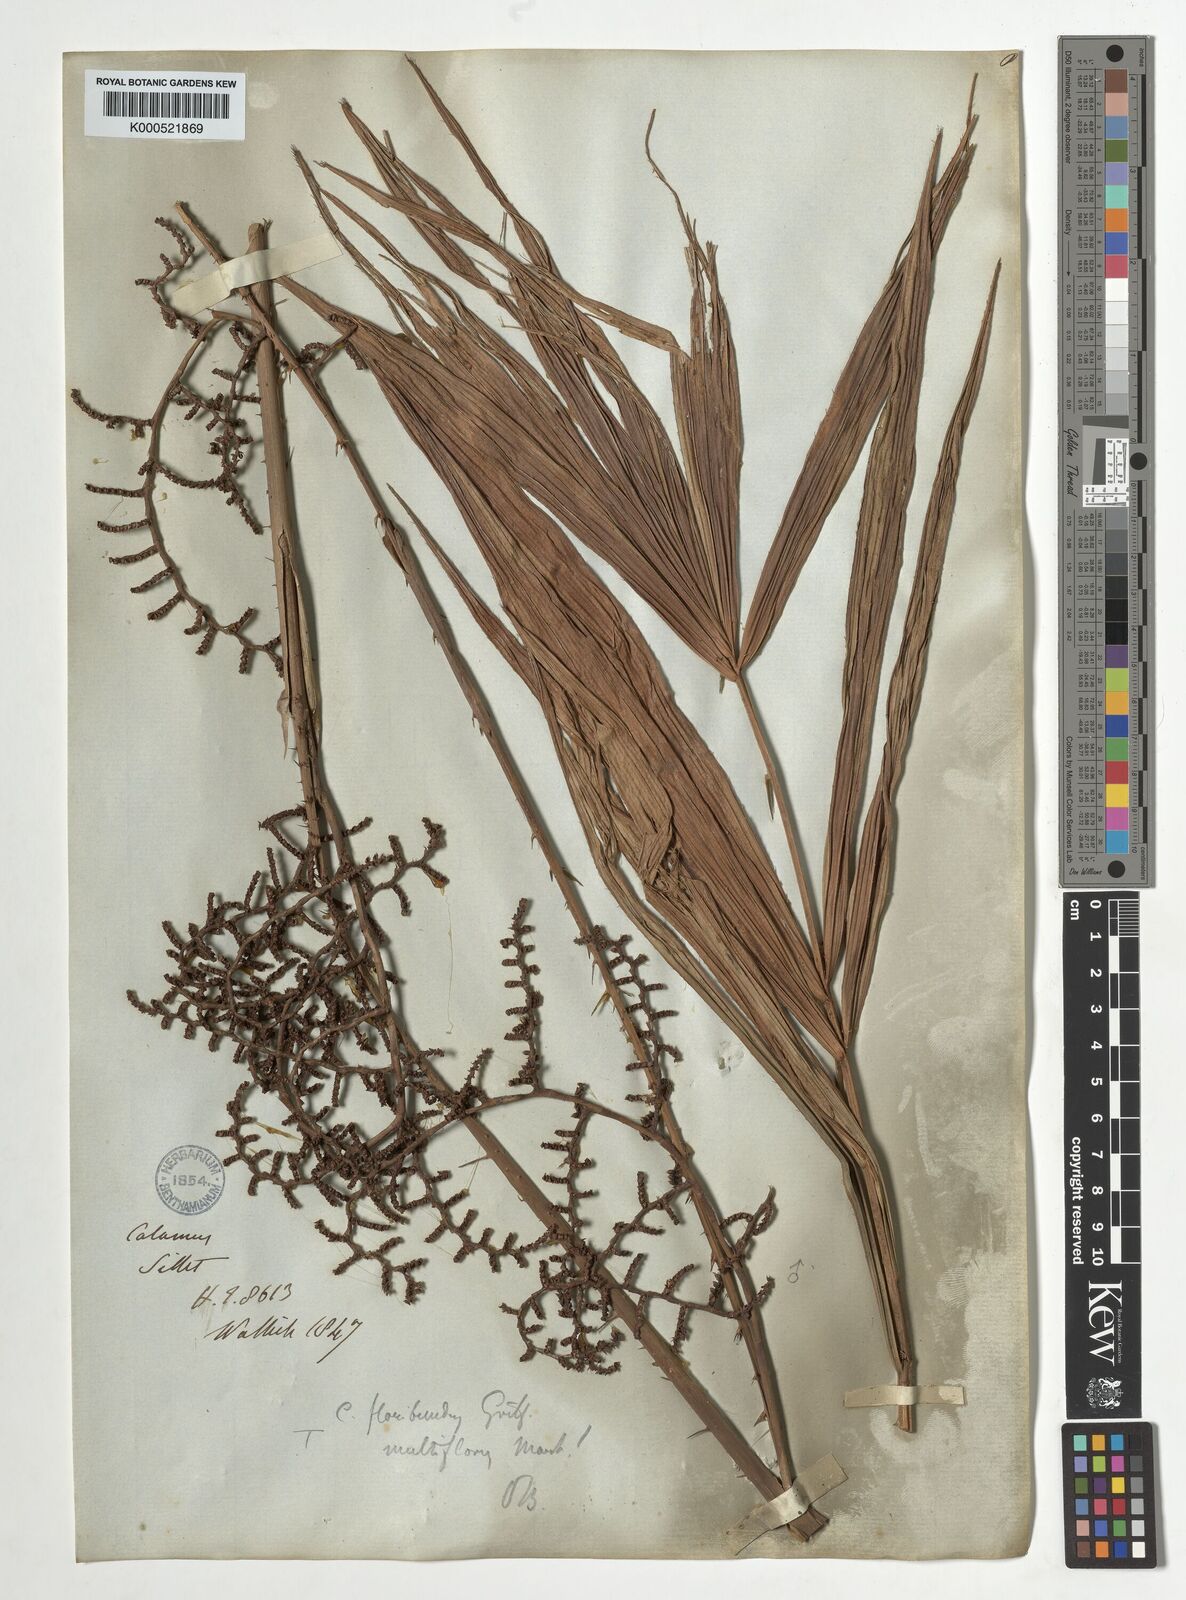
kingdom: Plantae
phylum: Tracheophyta
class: Liliopsida
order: Arecales
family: Arecaceae
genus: Calamus
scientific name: Calamus floribundus
